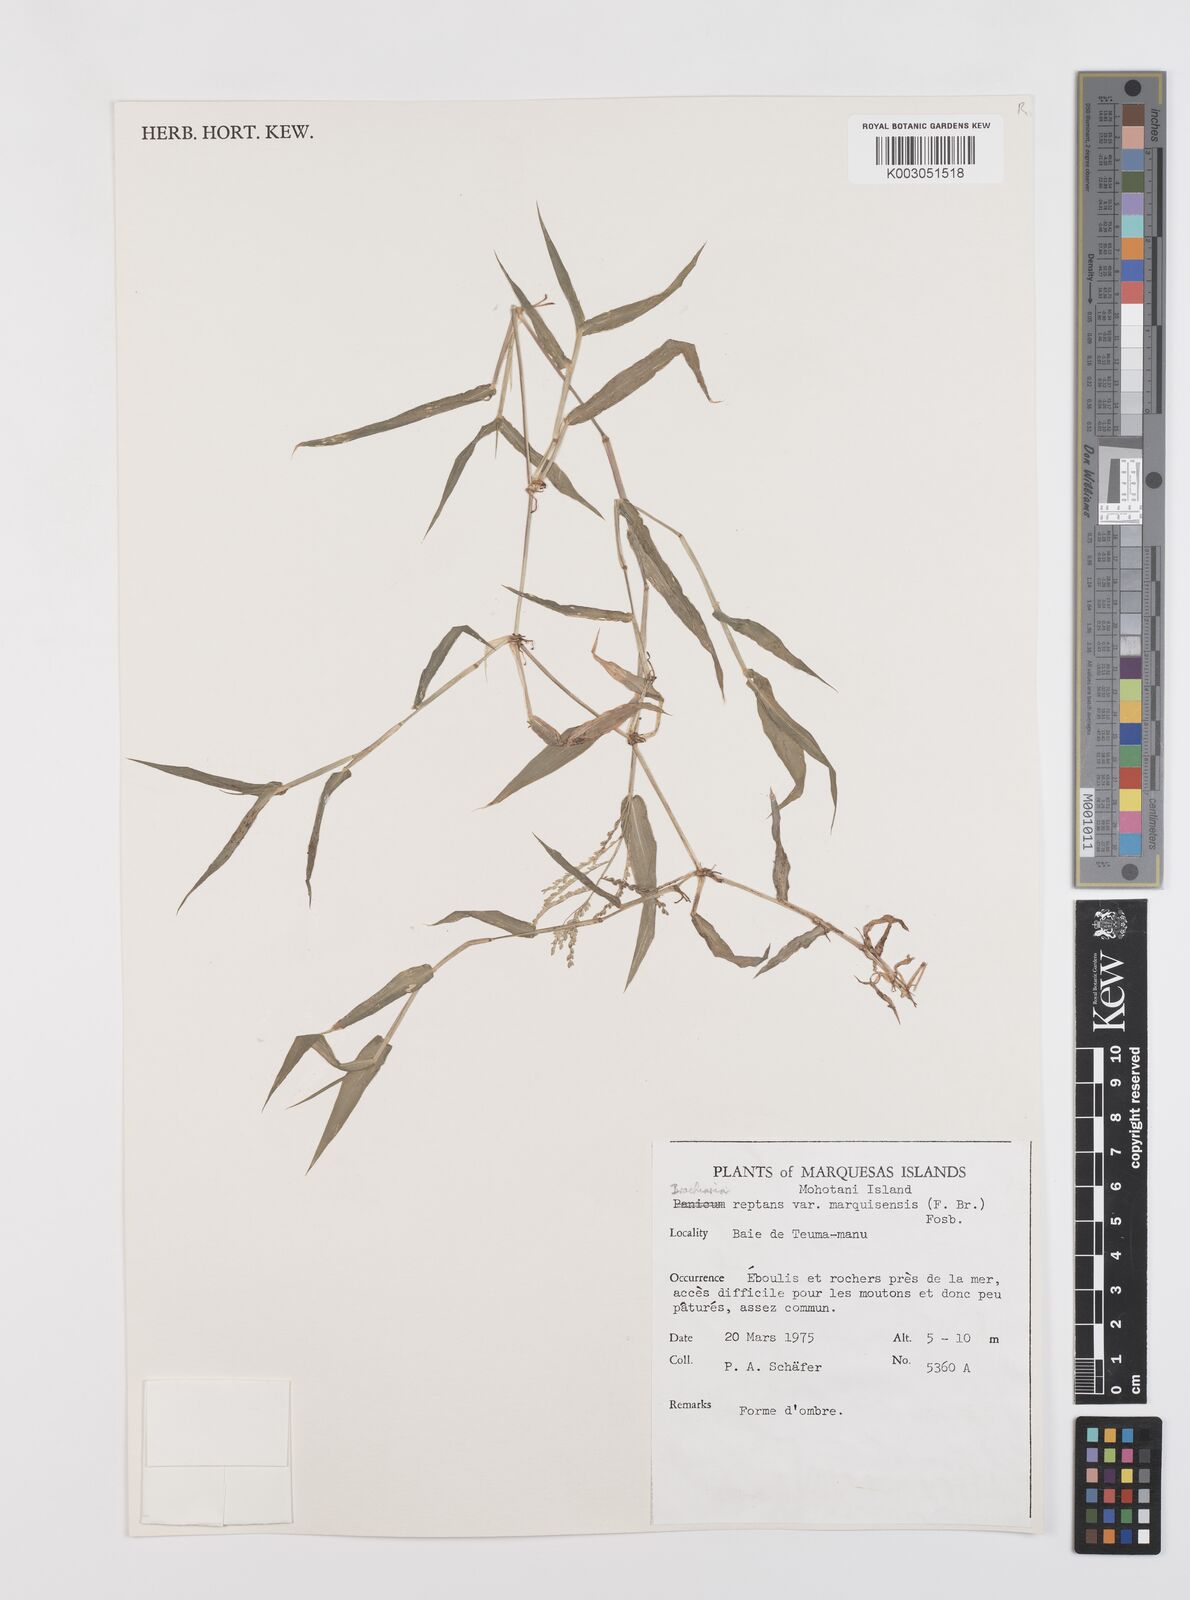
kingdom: Plantae
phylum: Tracheophyta
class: Liliopsida
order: Poales
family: Poaceae
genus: Urochloa
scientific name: Urochloa reptans
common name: Sprawling signalgrass
